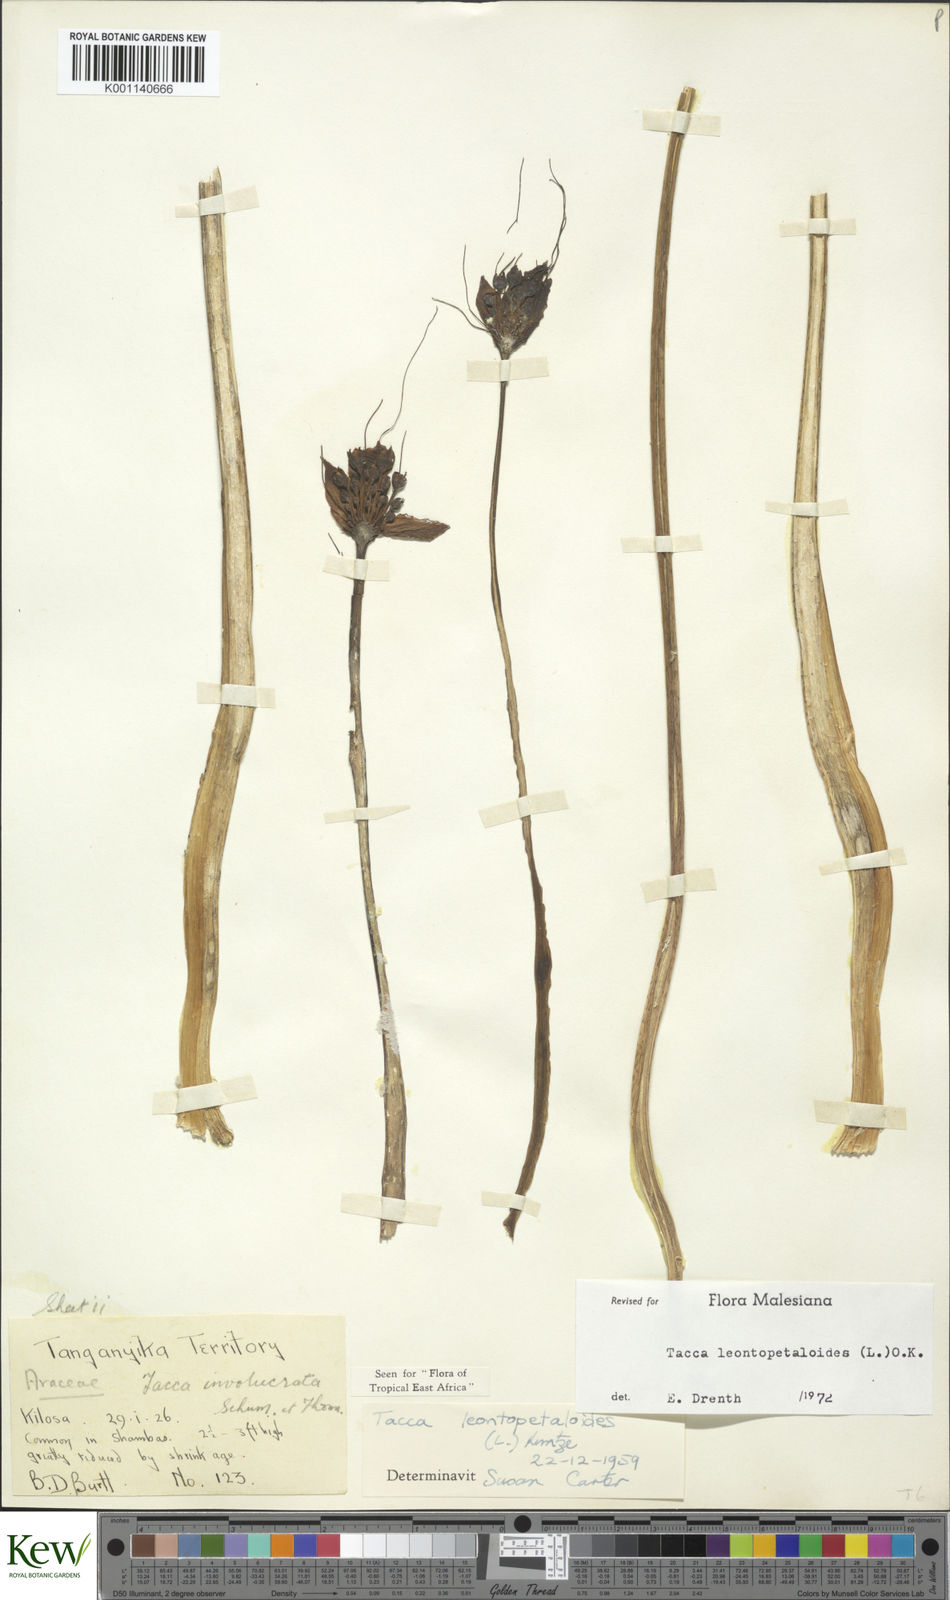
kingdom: Plantae
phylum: Tracheophyta
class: Liliopsida
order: Dioscoreales
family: Dioscoreaceae
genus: Tacca
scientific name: Tacca leontopetaloides
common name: Arrowroot
